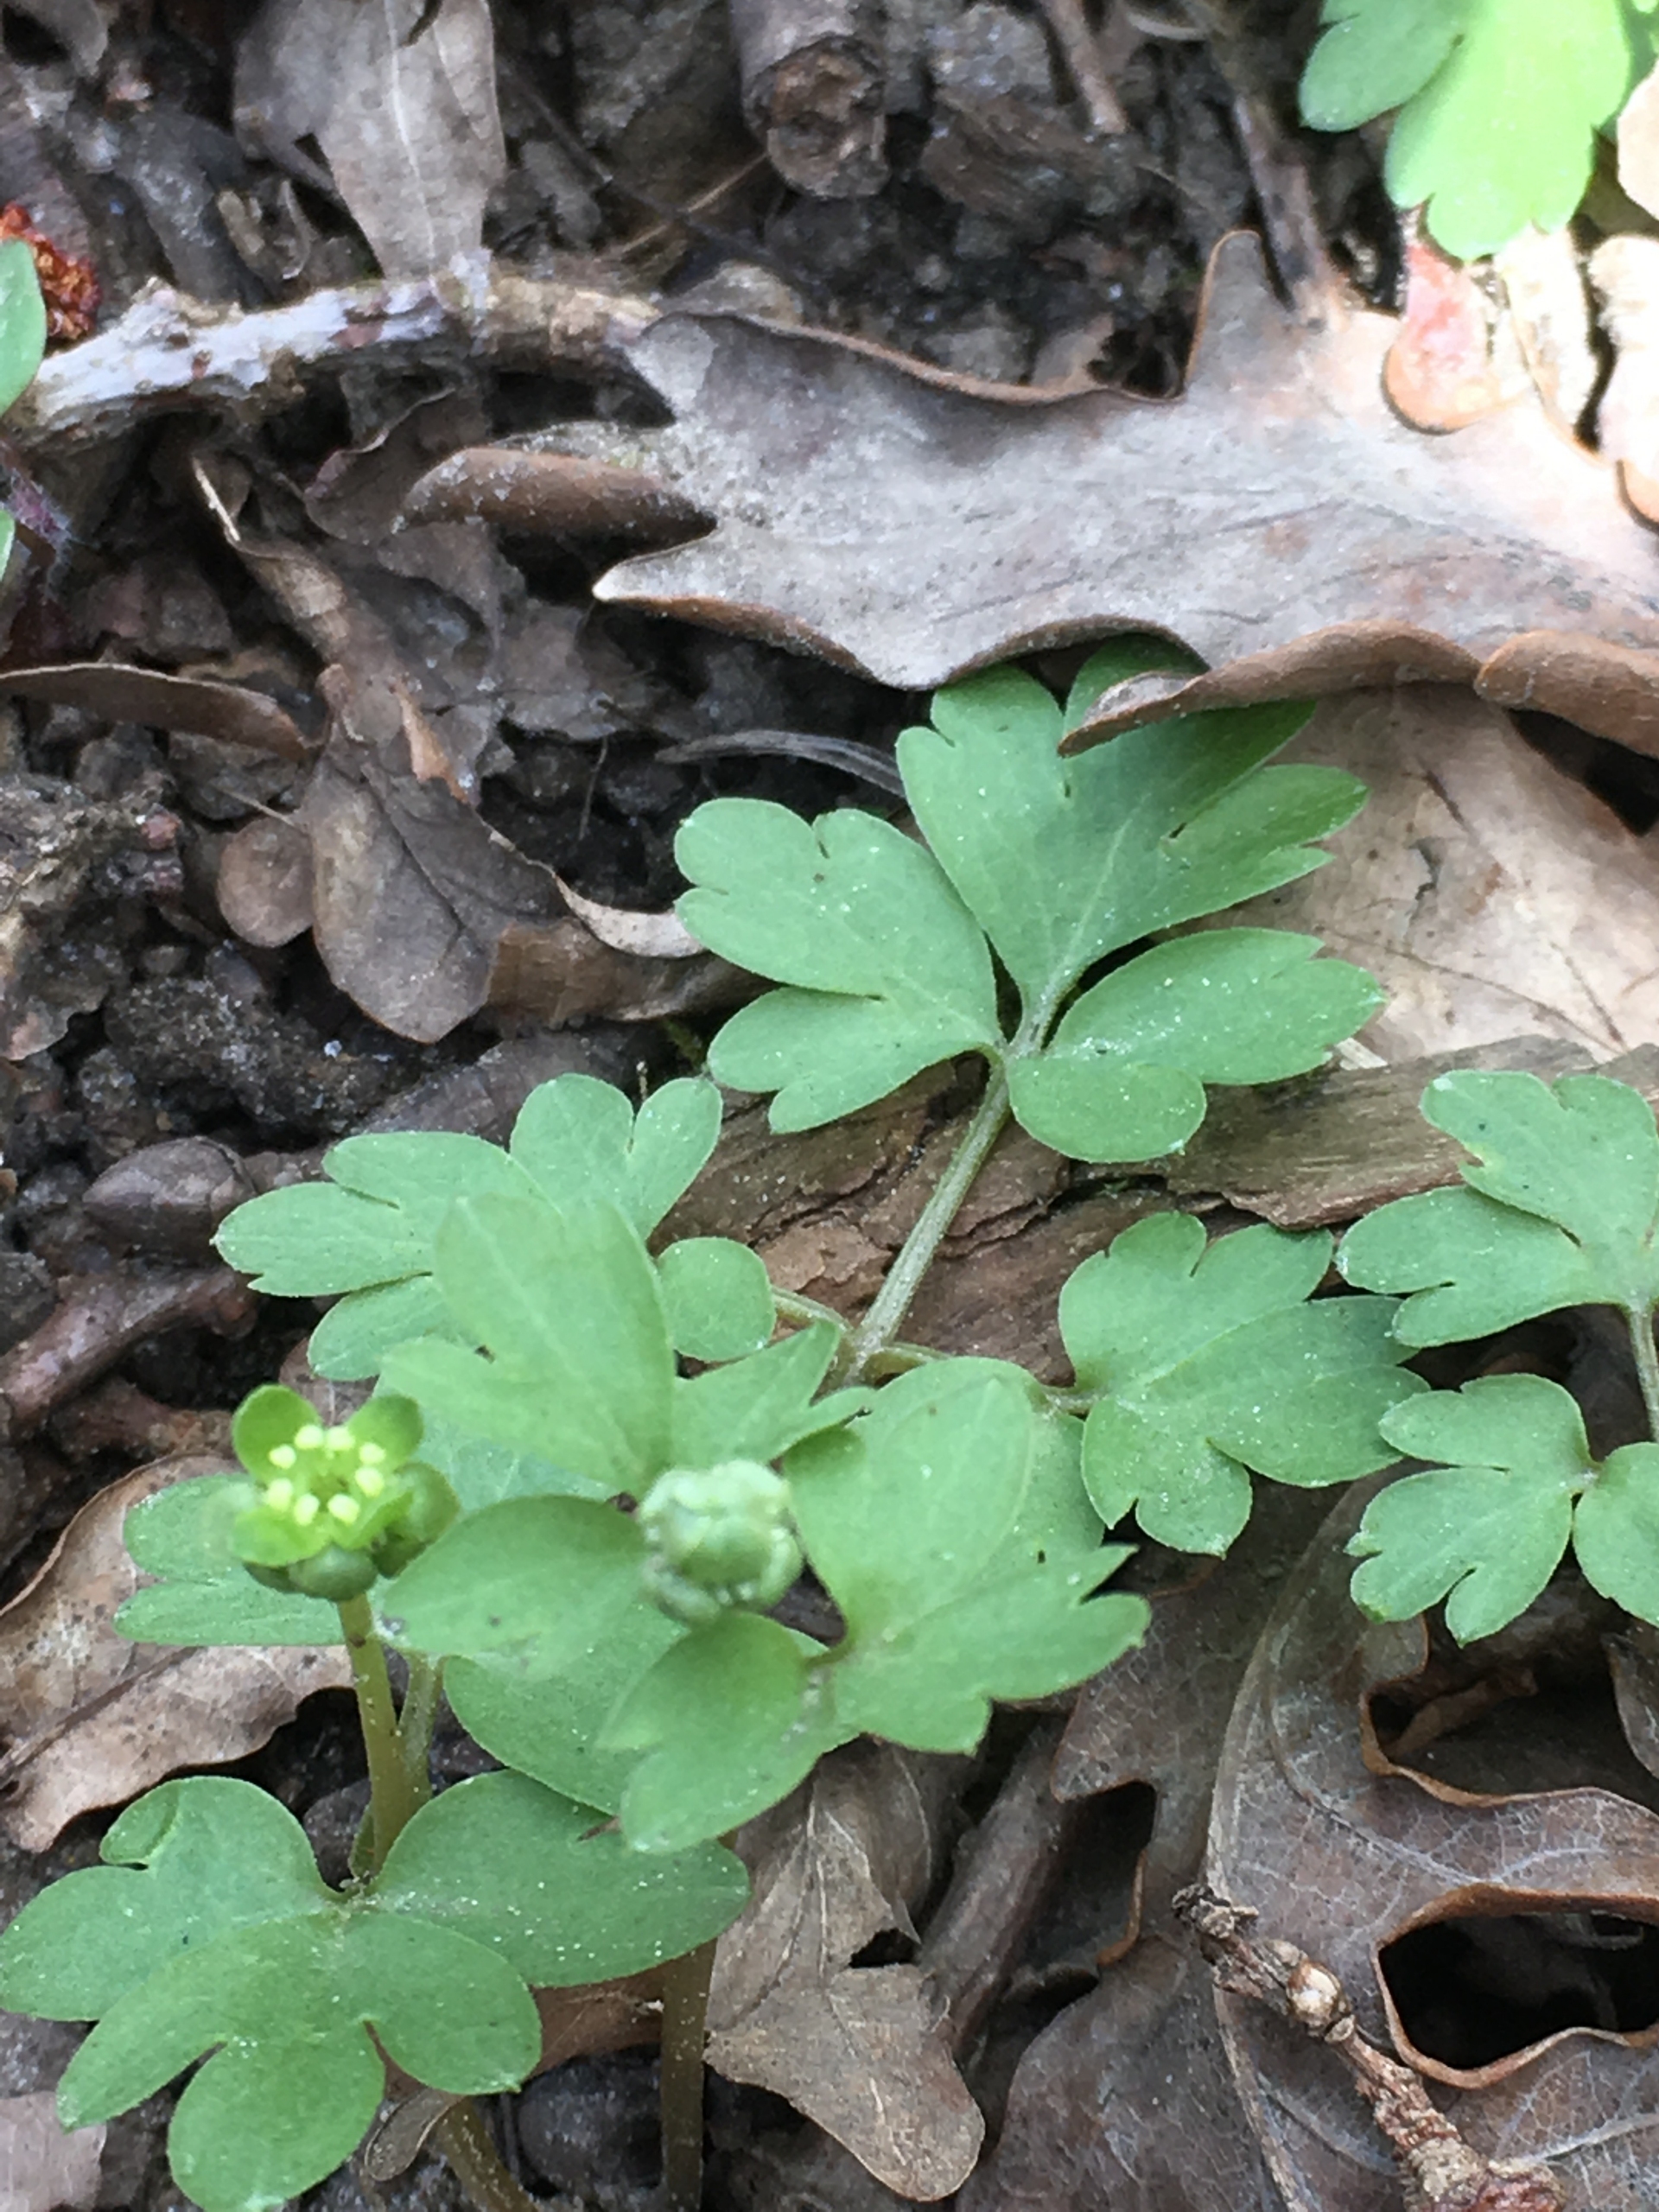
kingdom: Plantae
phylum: Tracheophyta
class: Magnoliopsida
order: Dipsacales
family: Viburnaceae
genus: Adoxa
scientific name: Adoxa moschatellina
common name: Desmerurt
